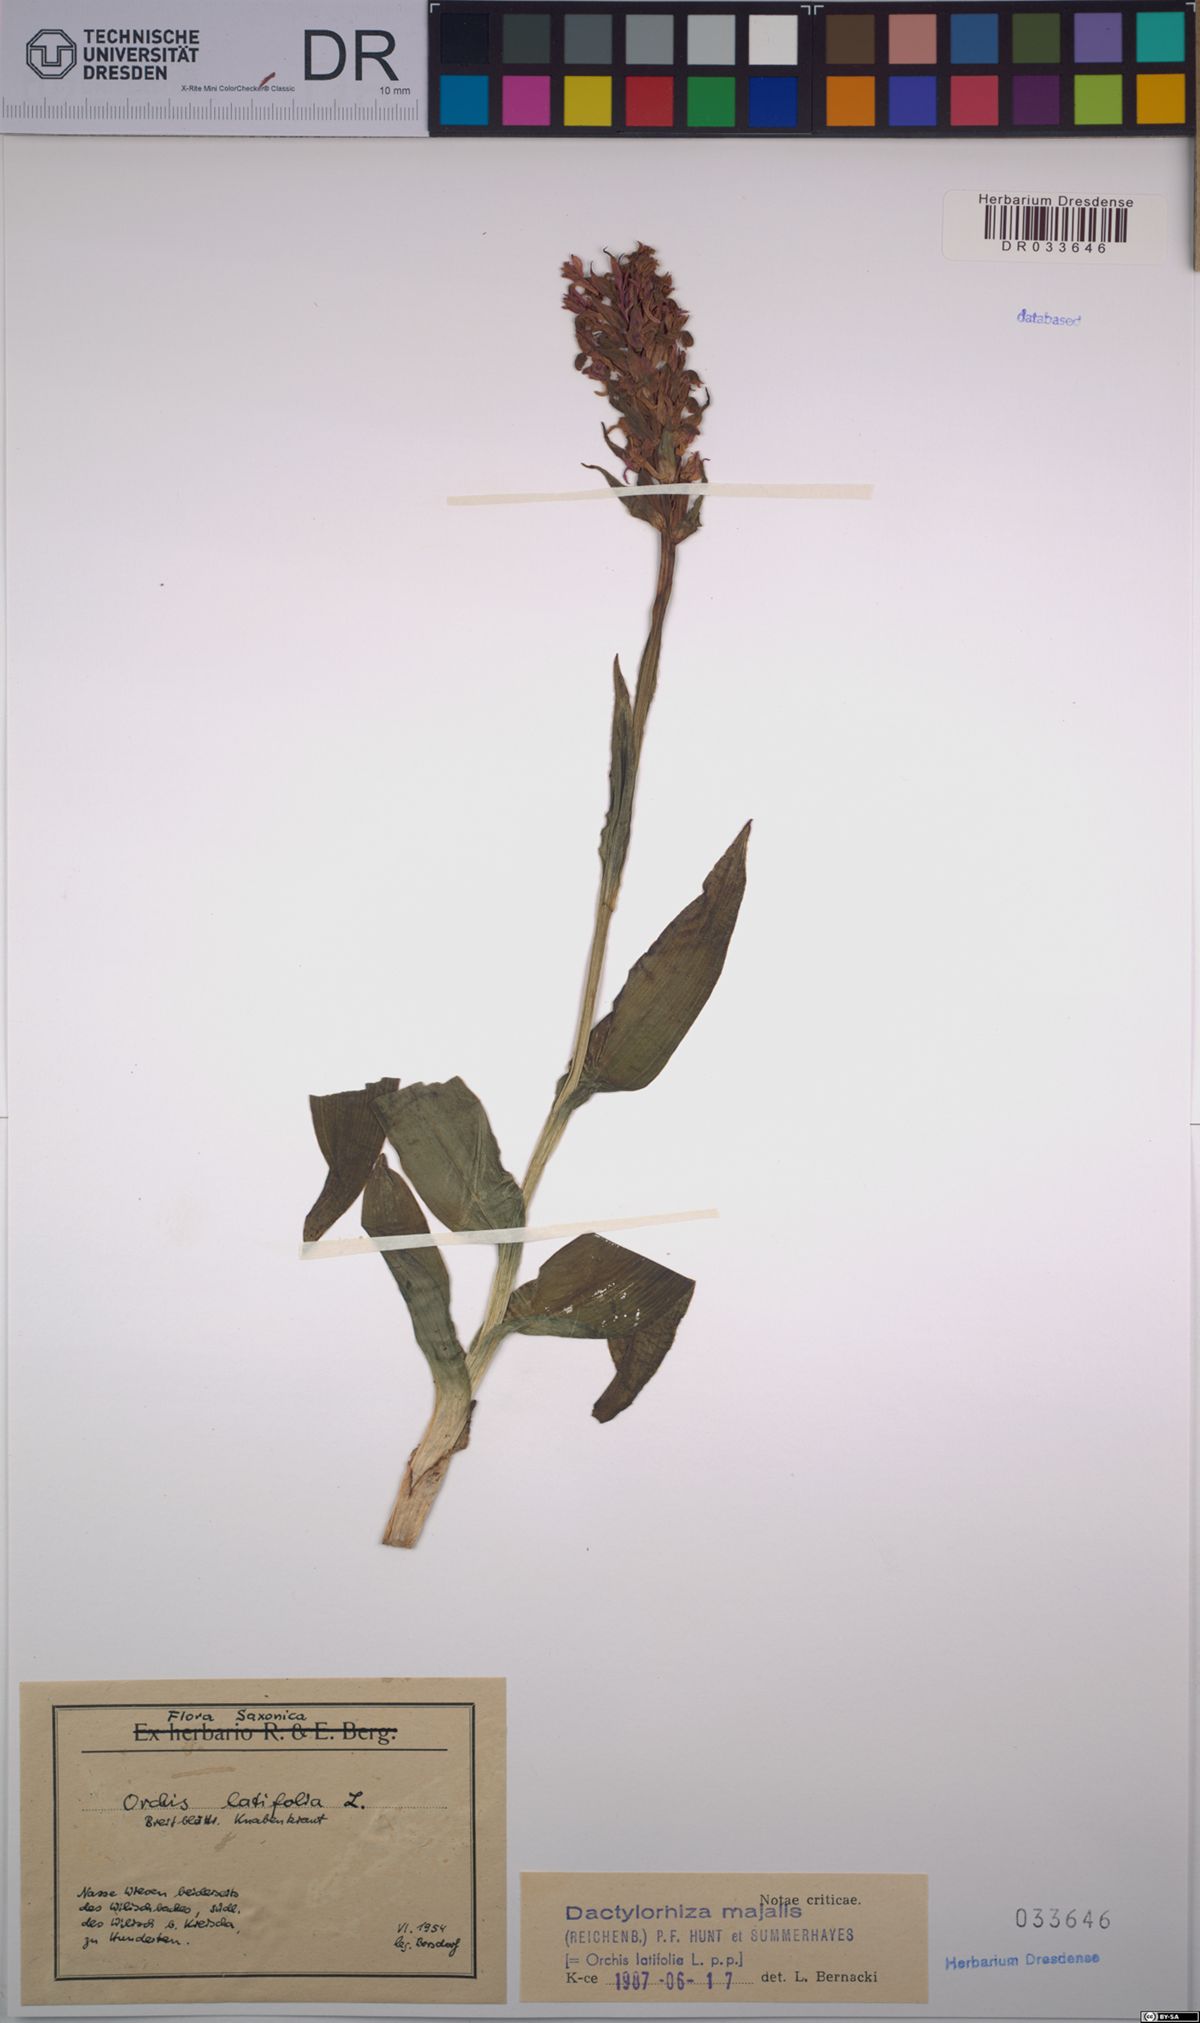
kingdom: Plantae
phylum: Tracheophyta
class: Liliopsida
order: Asparagales
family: Orchidaceae
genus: Dactylorhiza
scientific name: Dactylorhiza majalis
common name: Marsh orchid
